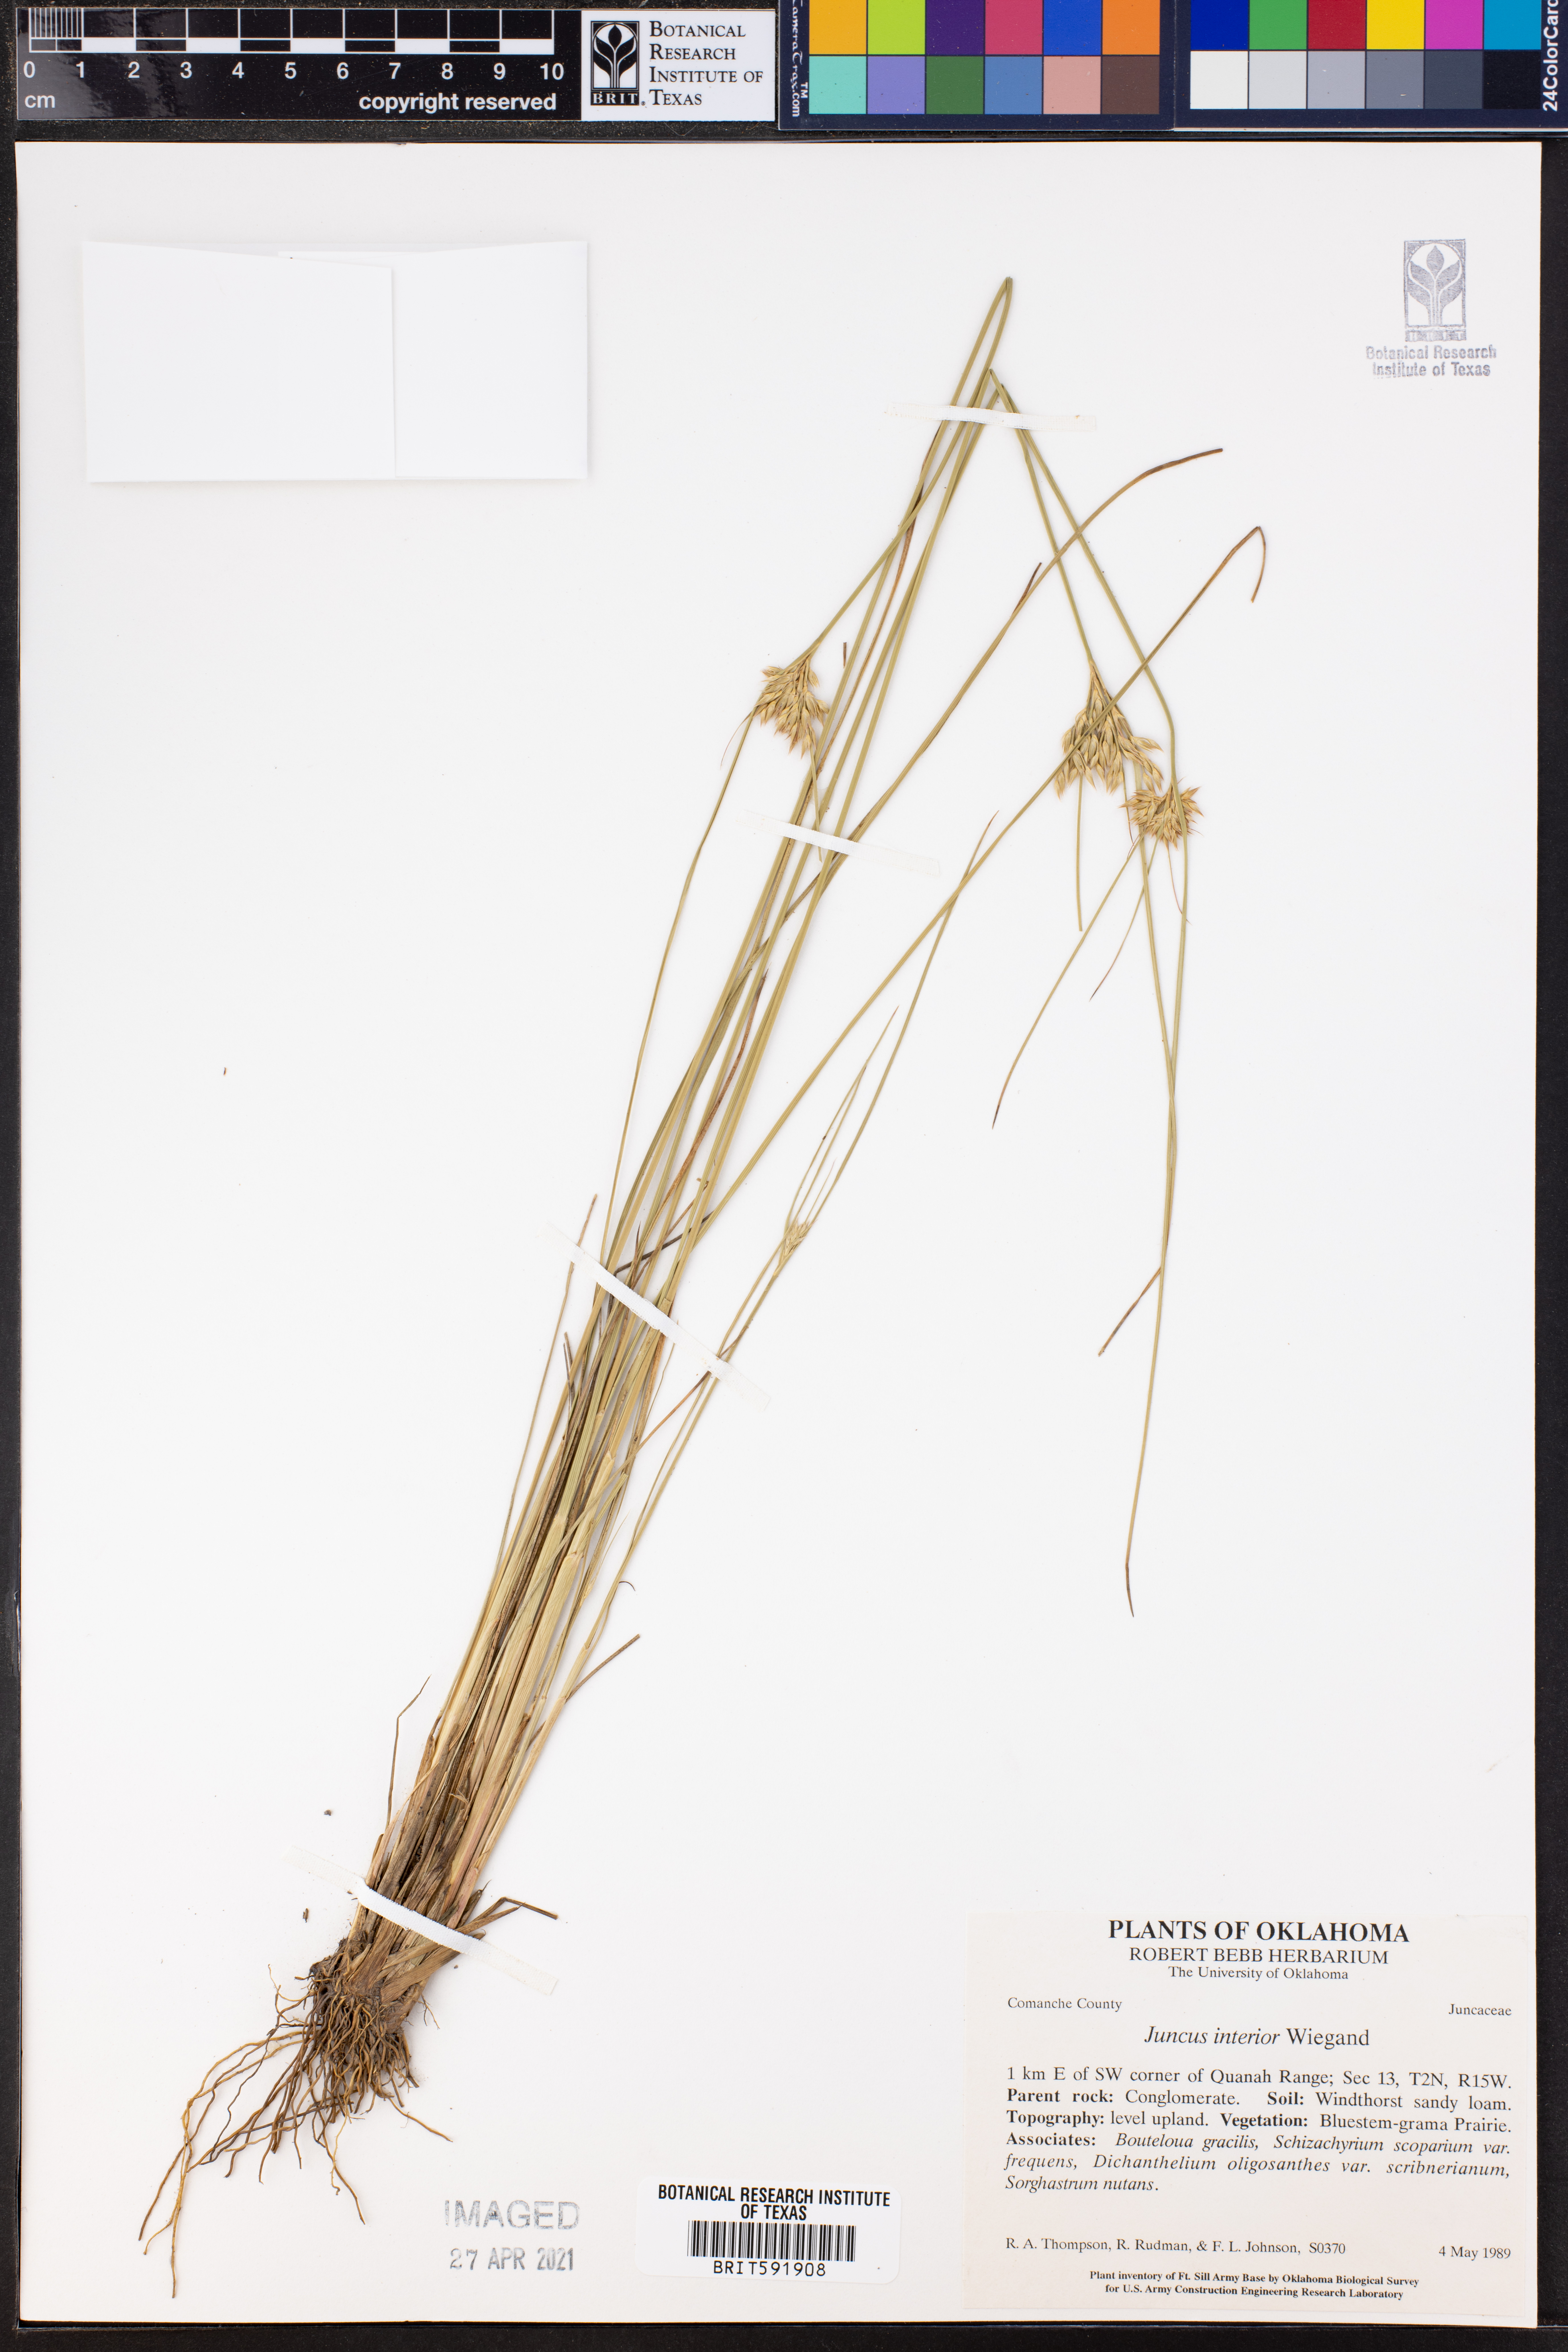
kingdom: Plantae
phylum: Tracheophyta
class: Liliopsida
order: Poales
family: Juncaceae
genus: Juncus
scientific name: Juncus interior
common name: Interior rush
